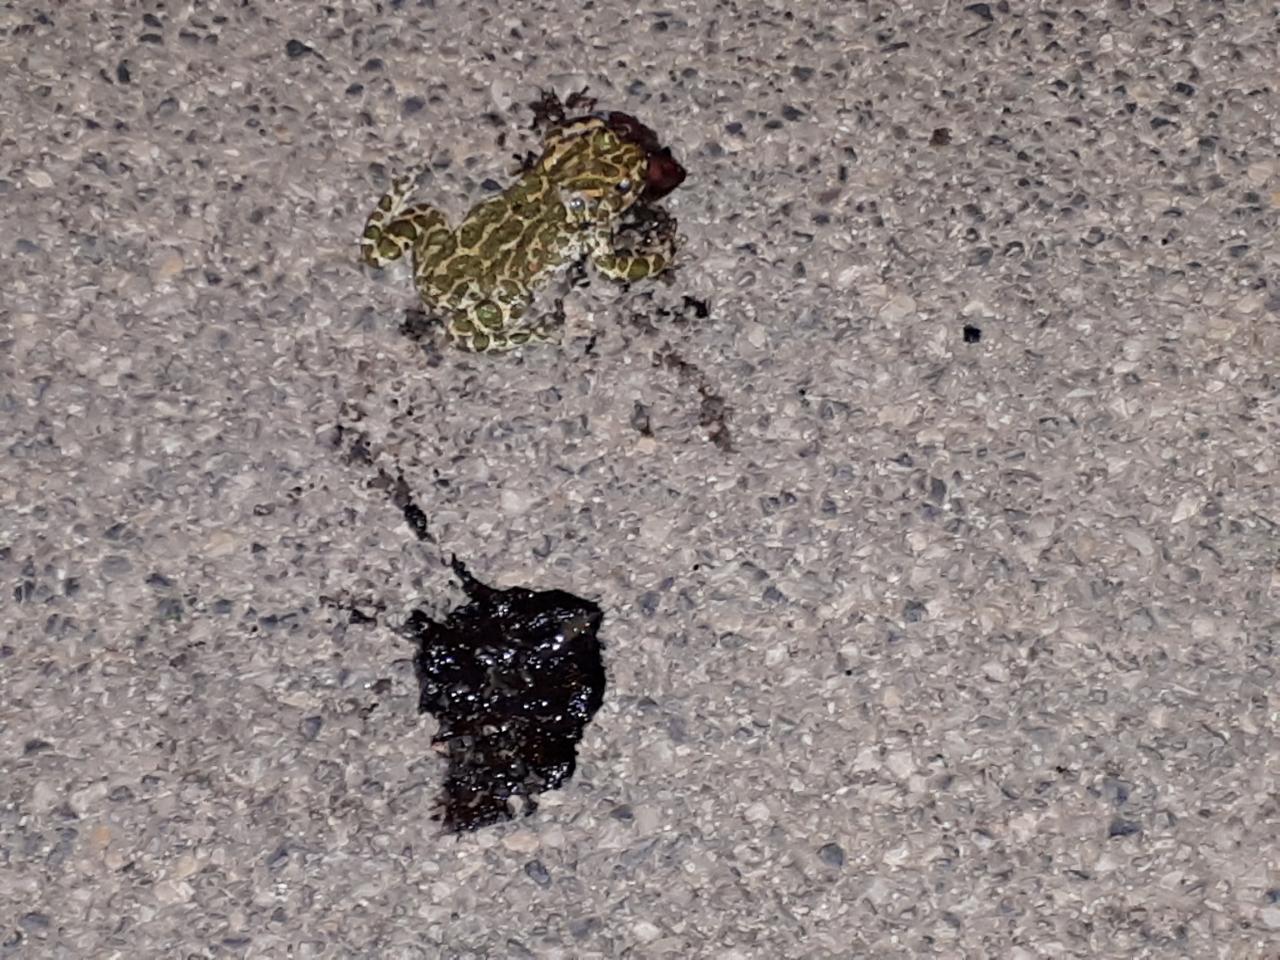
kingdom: Animalia
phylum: Chordata
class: Amphibia
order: Anura
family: Bufonidae
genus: Bufotes
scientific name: Bufotes viridis
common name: European green toad
